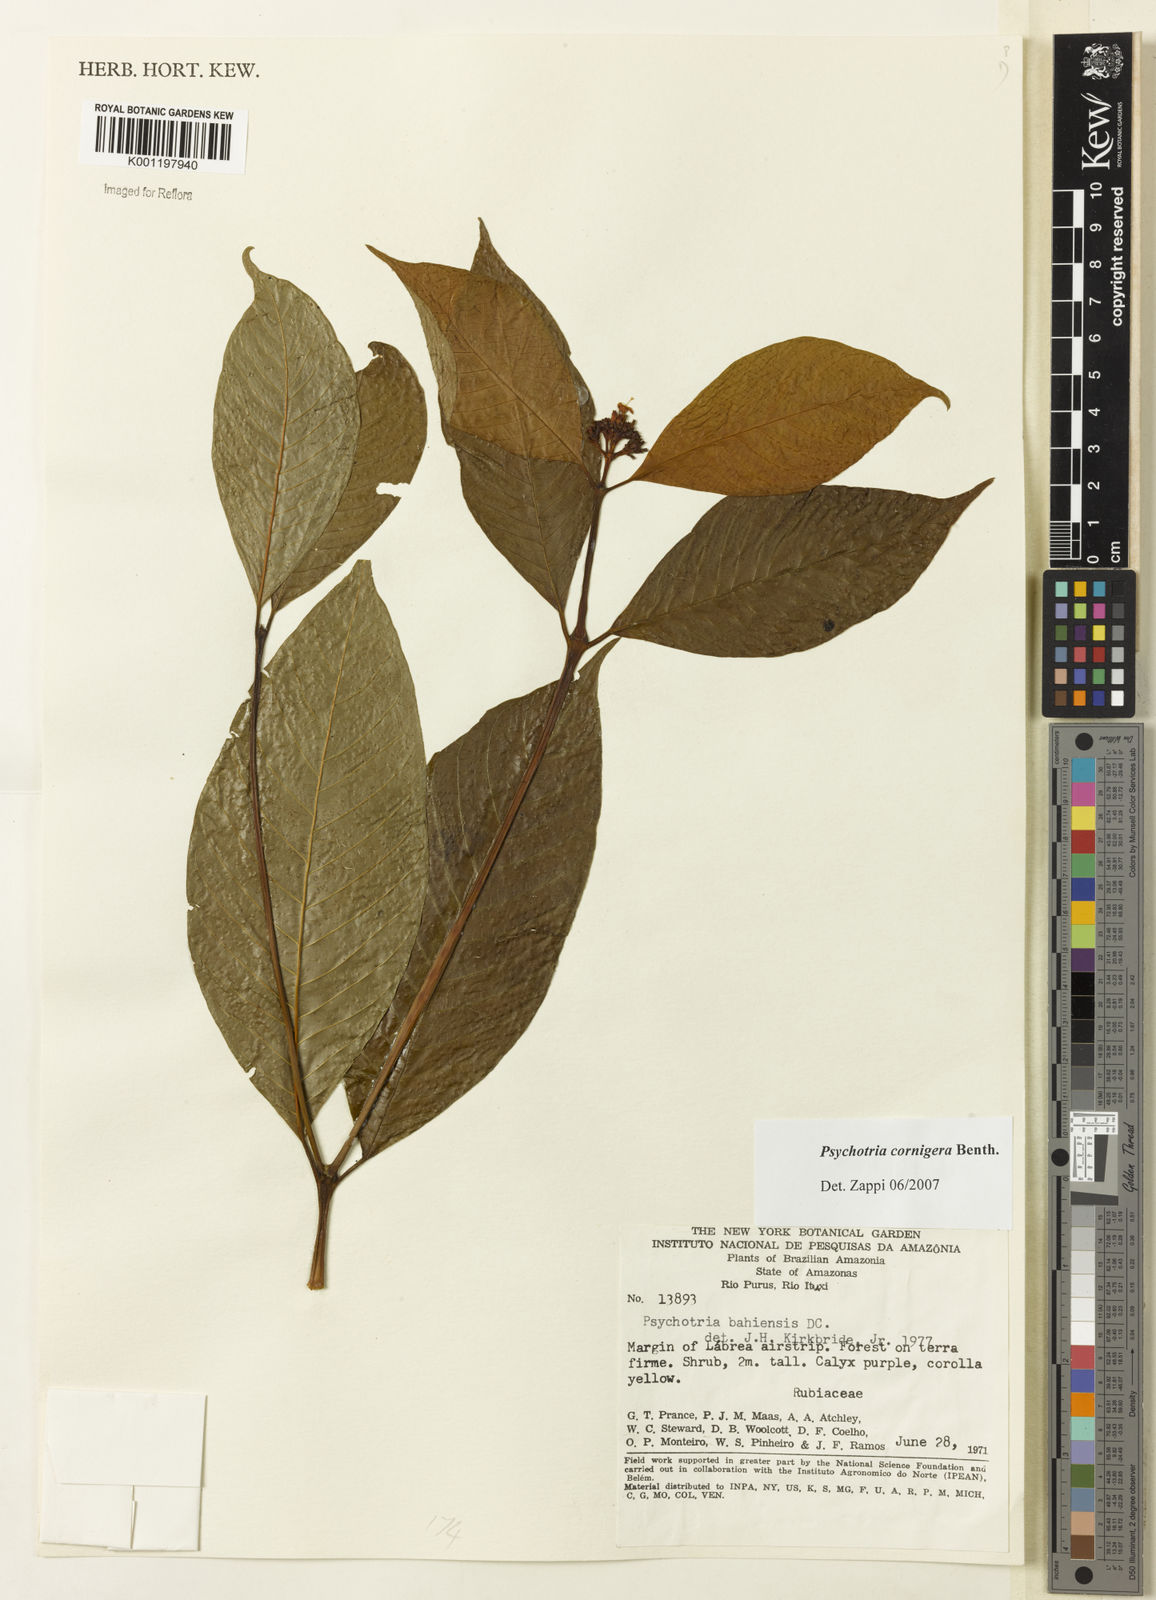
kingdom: Plantae
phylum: Tracheophyta
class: Magnoliopsida
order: Gentianales
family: Rubiaceae
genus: Psychotria
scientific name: Psychotria bahiensis
